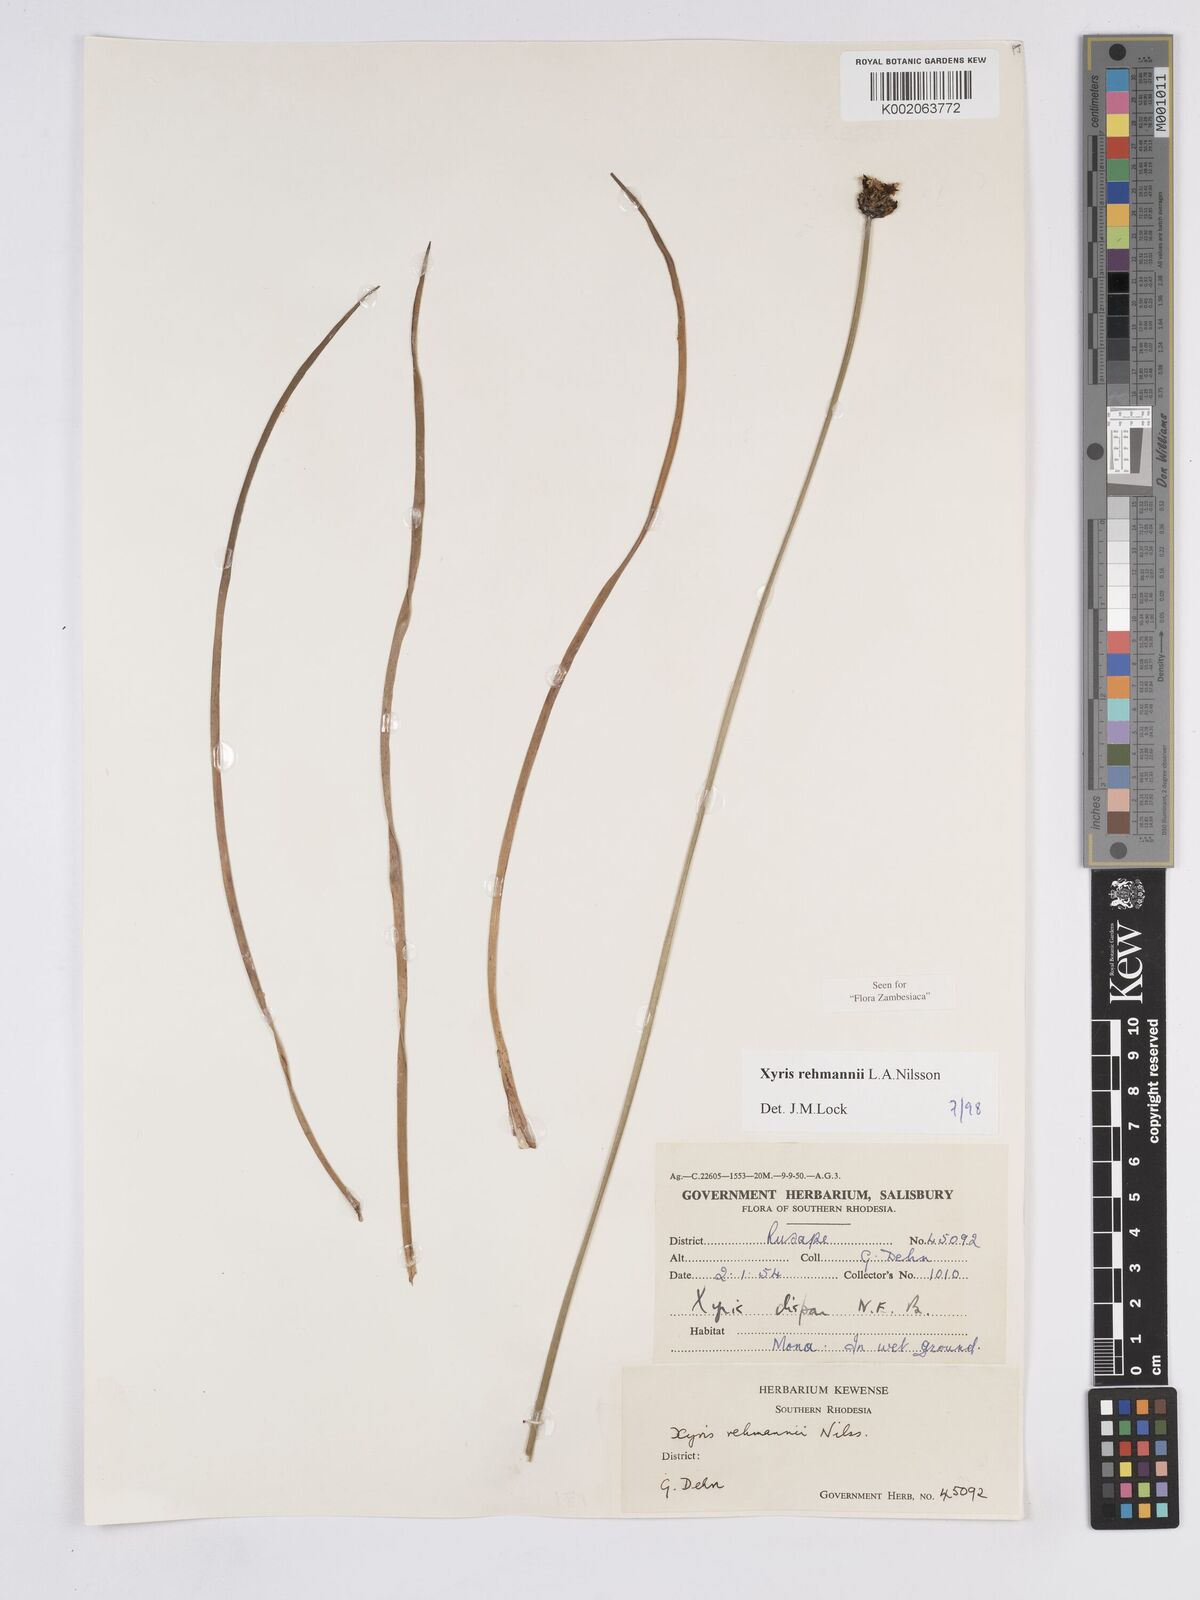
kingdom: Plantae
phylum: Tracheophyta
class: Liliopsida
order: Poales
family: Xyridaceae
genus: Xyris
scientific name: Xyris rehmannii
